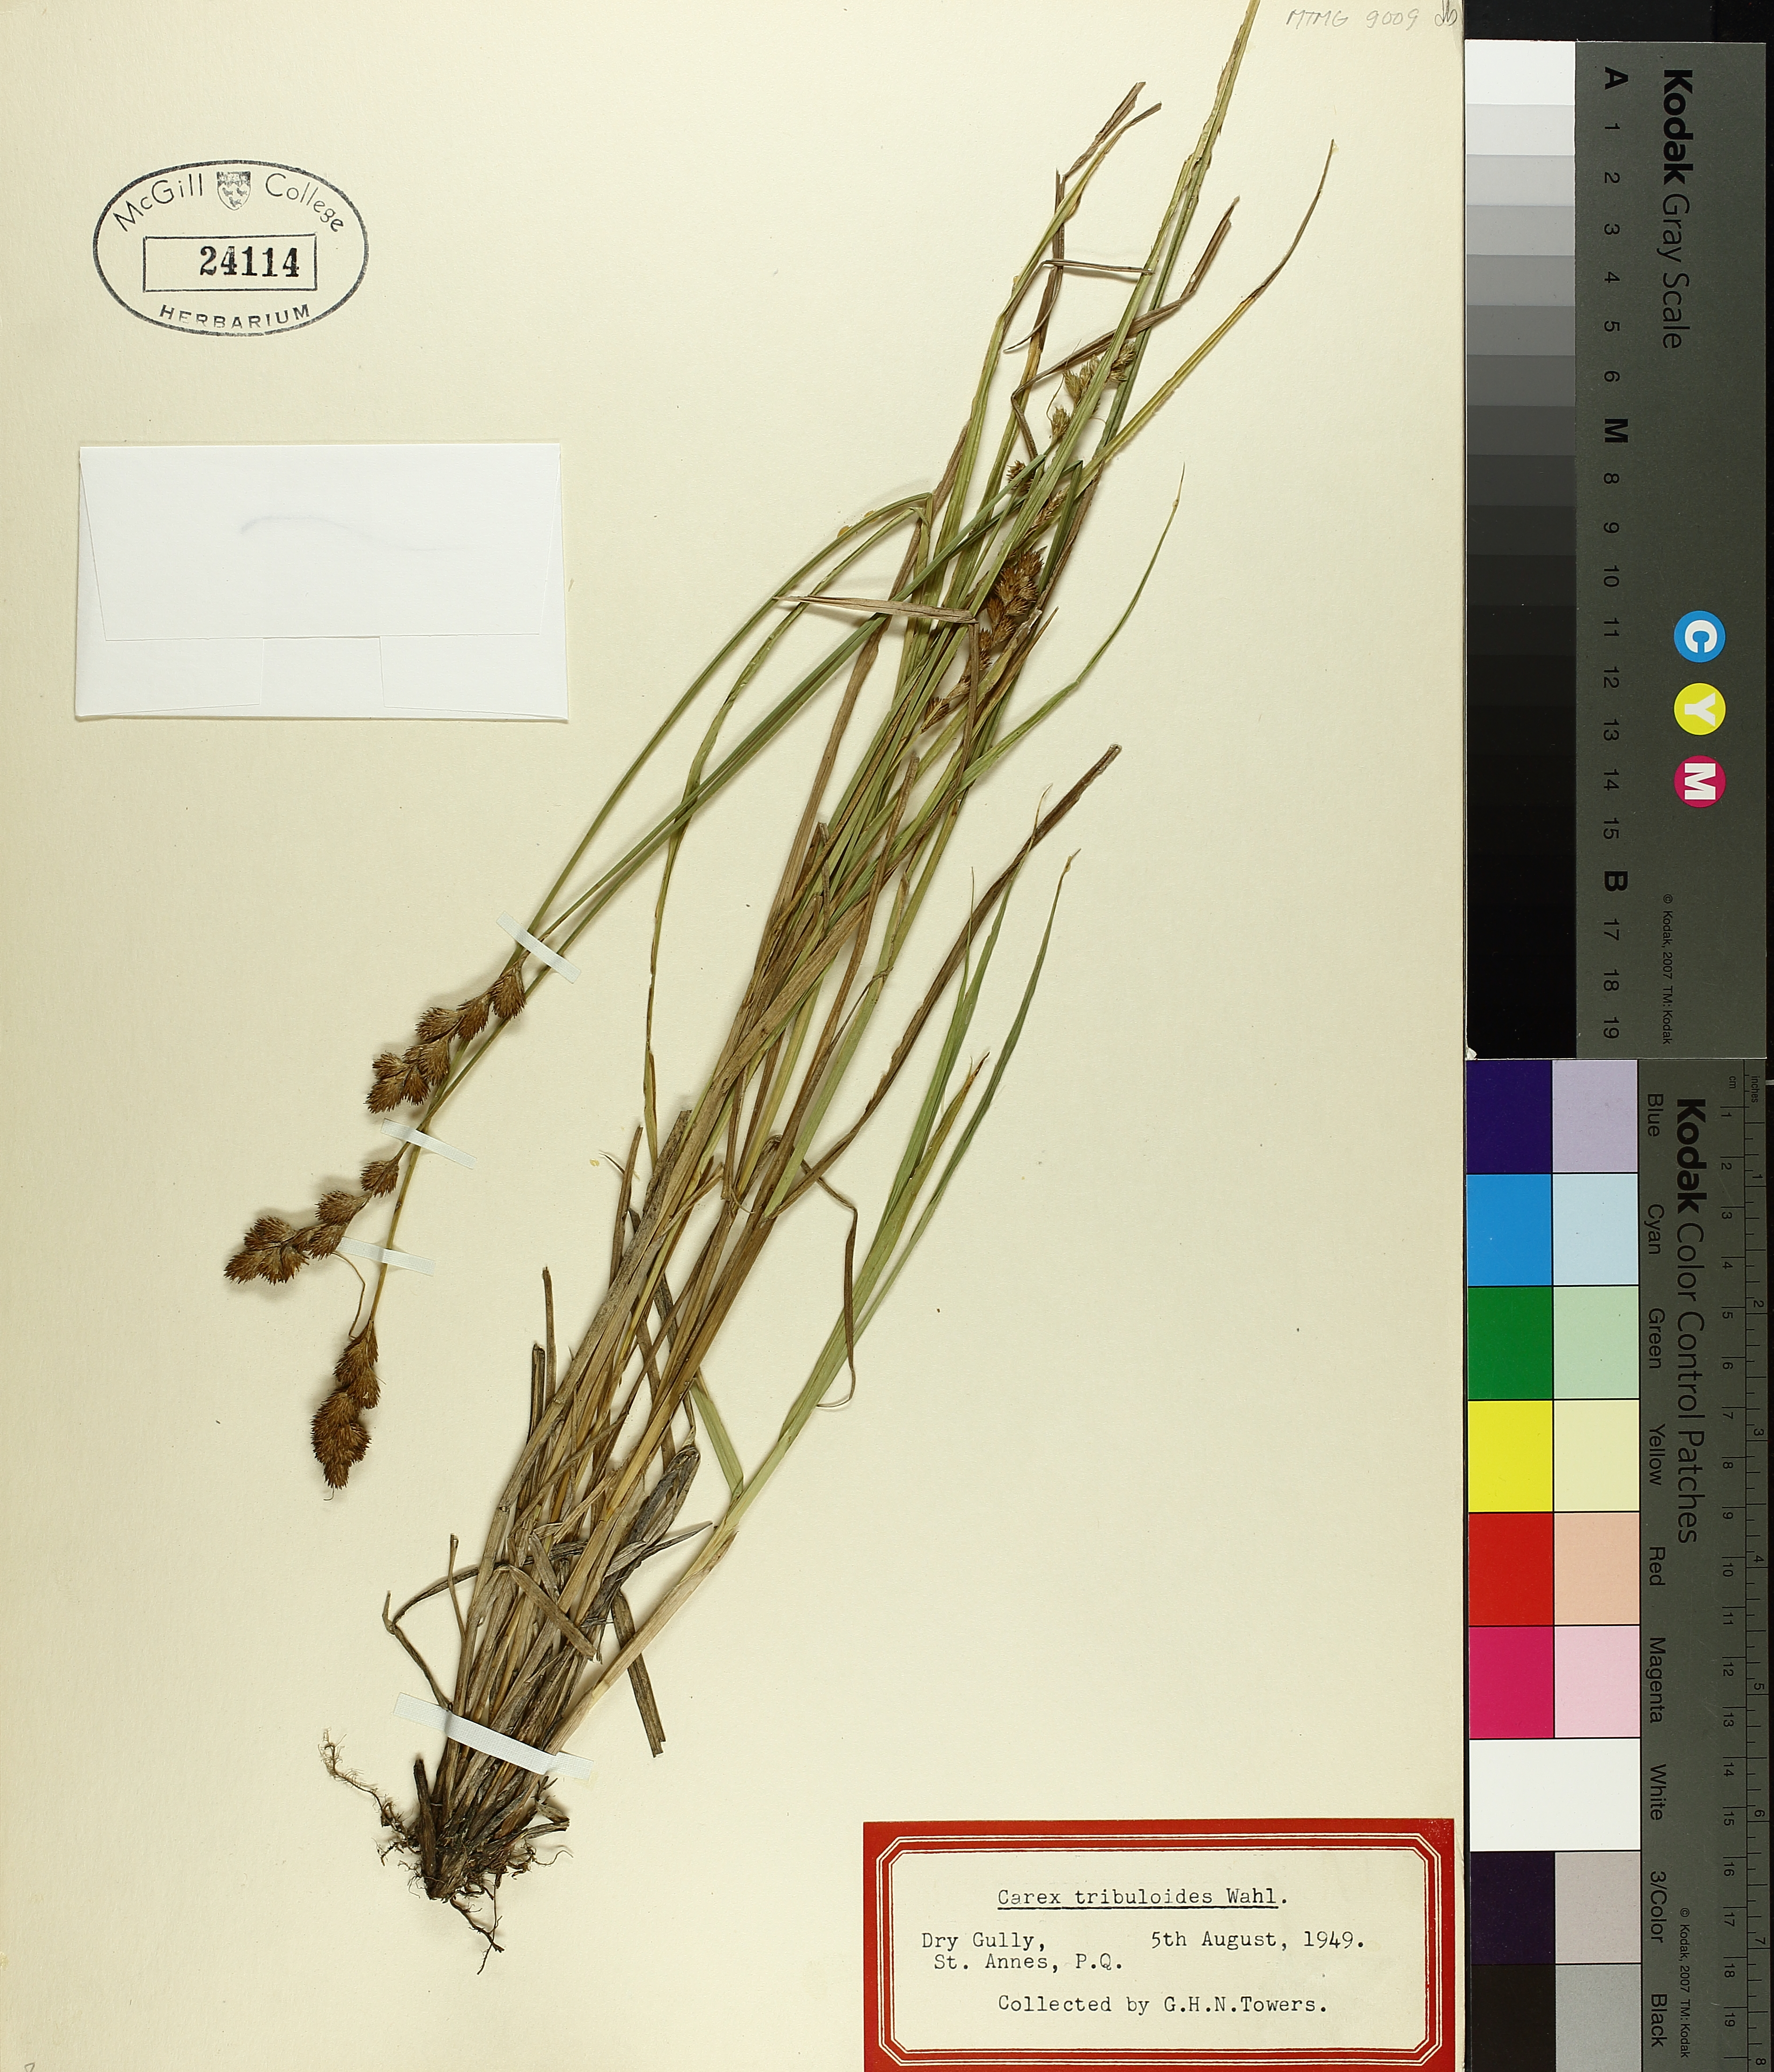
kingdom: Plantae
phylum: Tracheophyta
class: Liliopsida
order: Poales
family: Cyperaceae
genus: Carex
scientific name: Carex tribuloides
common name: Blunt broom sedge
